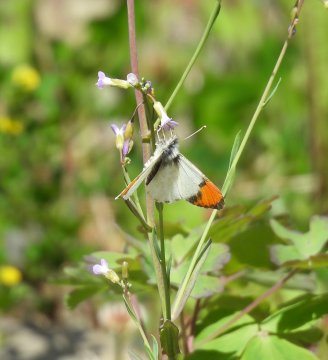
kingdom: Animalia
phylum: Arthropoda
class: Insecta
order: Lepidoptera
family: Pieridae
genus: Anthocharis
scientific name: Anthocharis sara
